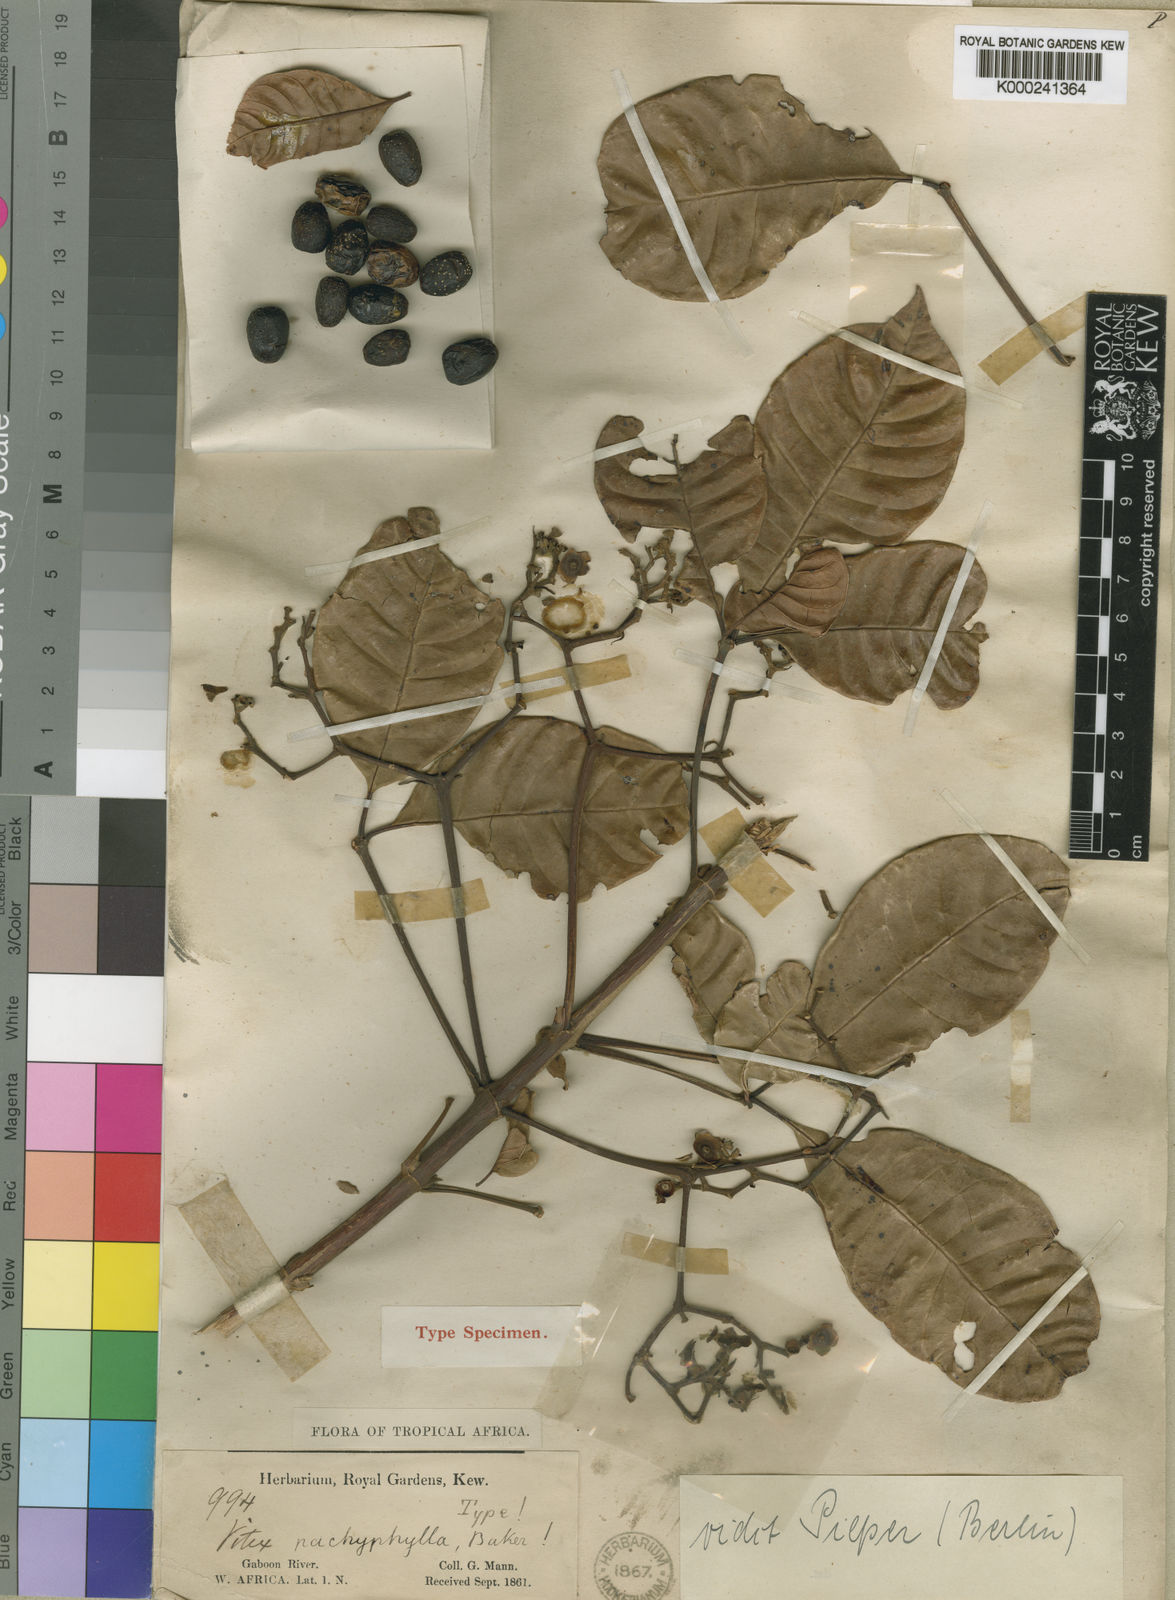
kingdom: Plantae
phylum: Tracheophyta
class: Magnoliopsida
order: Lamiales
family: Lamiaceae
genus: Vitex
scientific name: Vitex doniana
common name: Black plum
